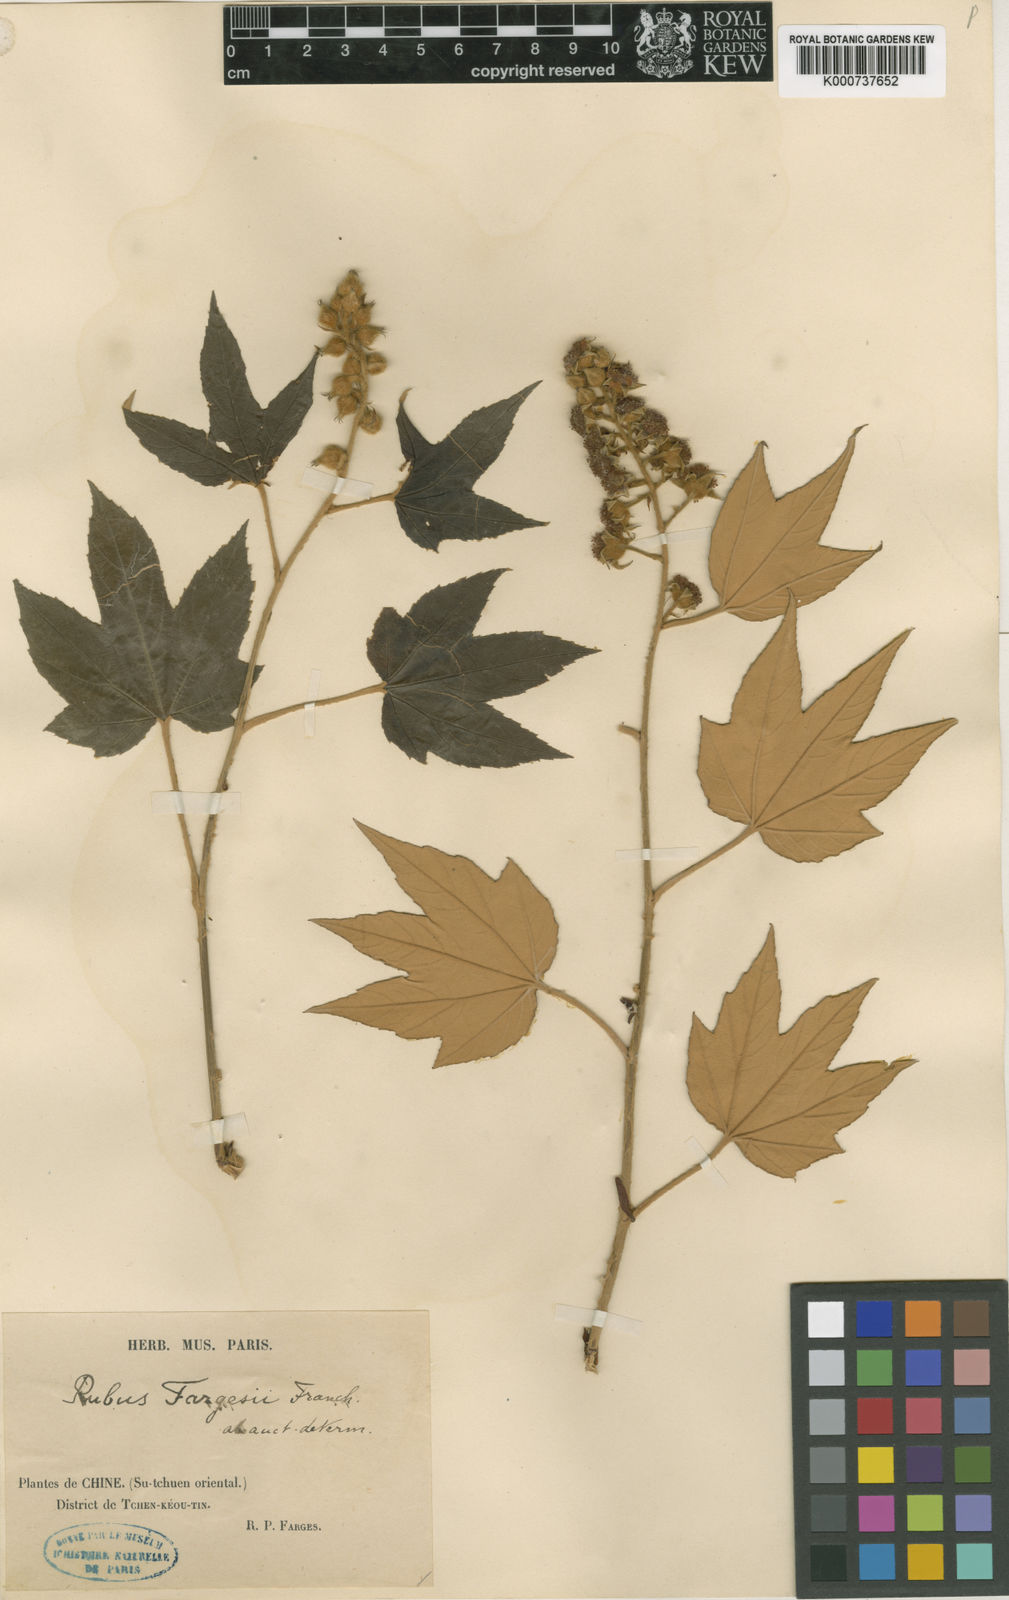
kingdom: Plantae
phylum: Tracheophyta
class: Magnoliopsida
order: Rosales
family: Rosaceae
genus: Rubus
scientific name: Rubus henryi
